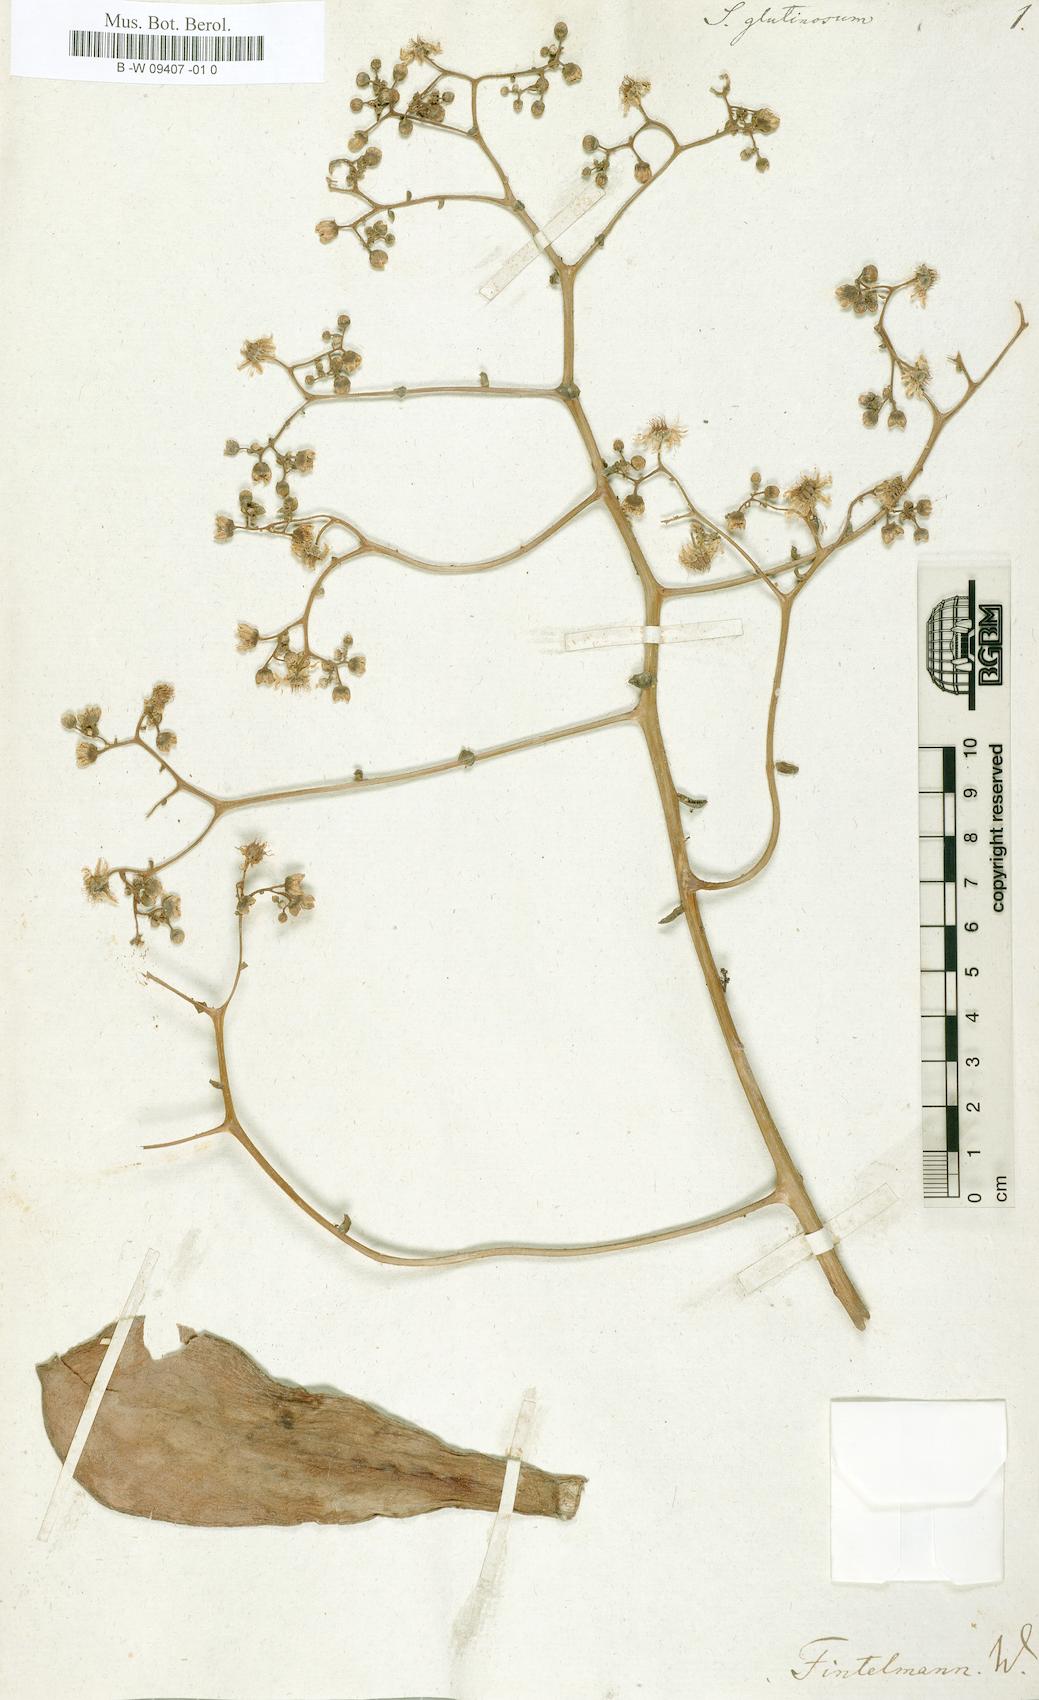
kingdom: Plantae
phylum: Tracheophyta
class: Magnoliopsida
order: Saxifragales
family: Crassulaceae
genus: Aeonium
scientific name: Aeonium glutinosum
